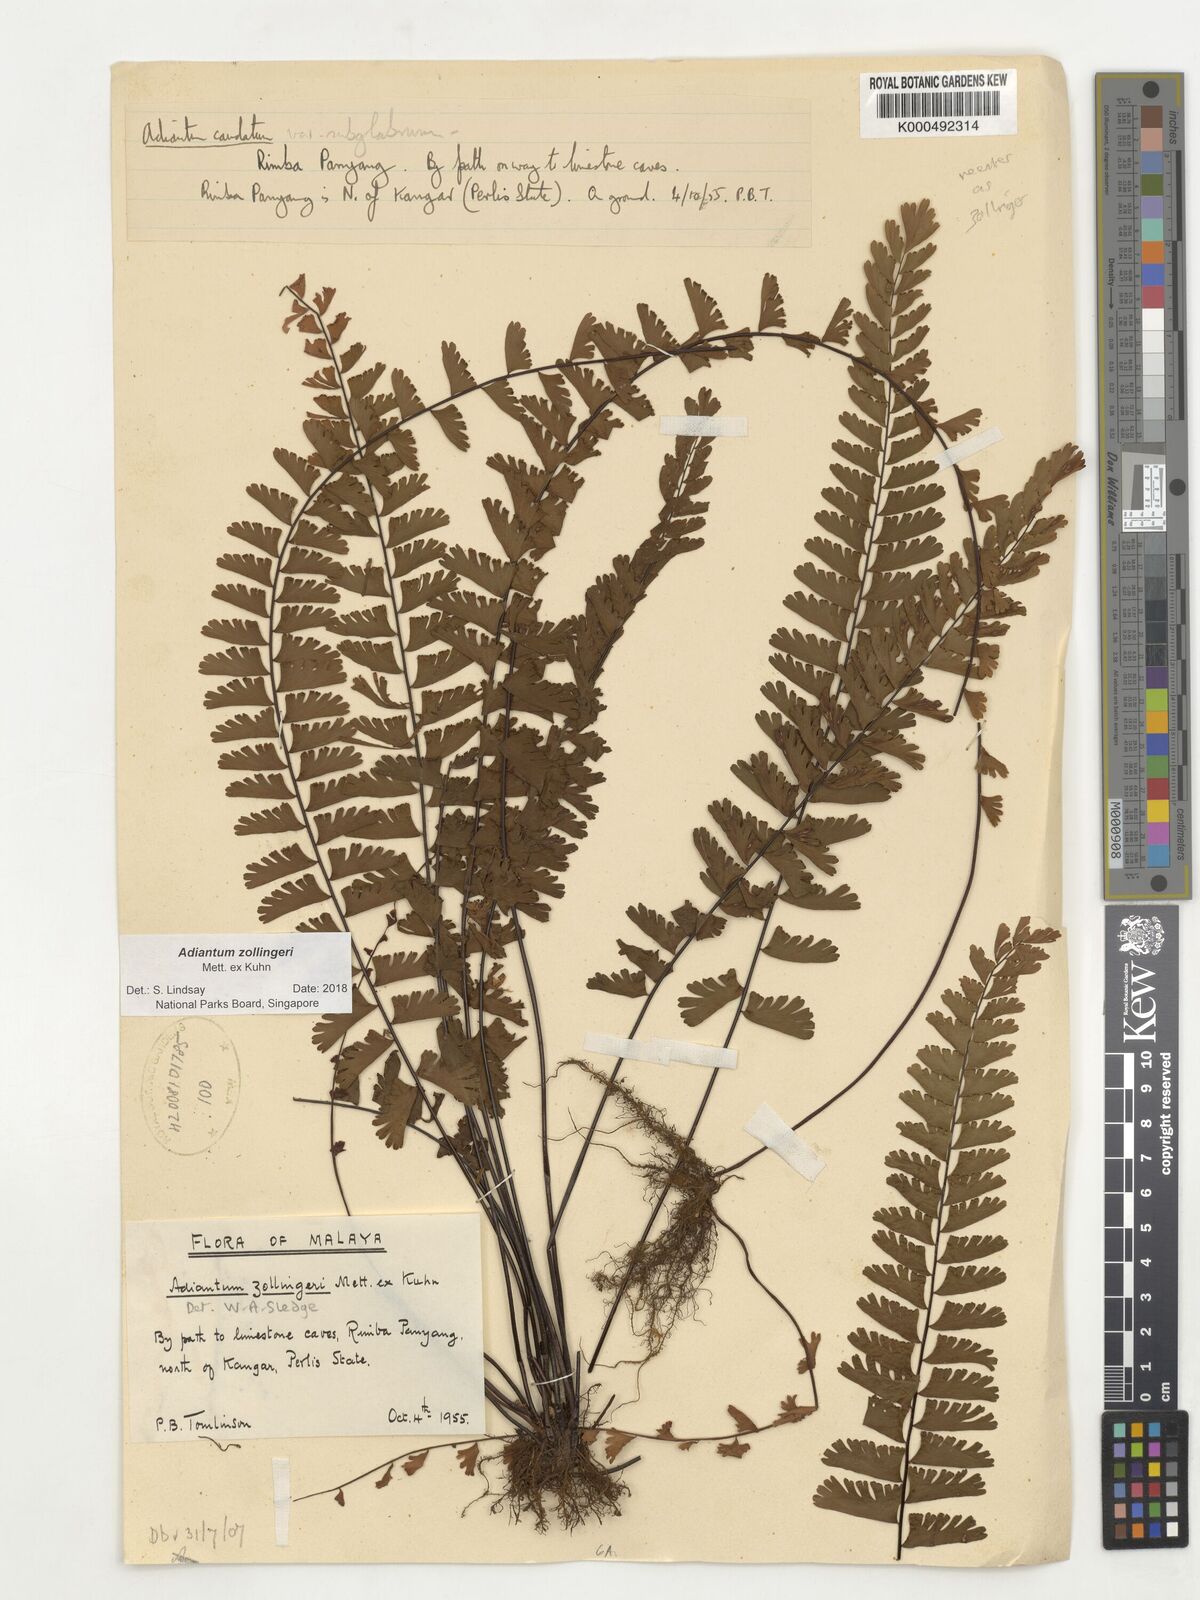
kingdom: Plantae
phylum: Tracheophyta
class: Polypodiopsida
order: Polypodiales
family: Pteridaceae
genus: Adiantum
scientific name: Adiantum zollingeri
